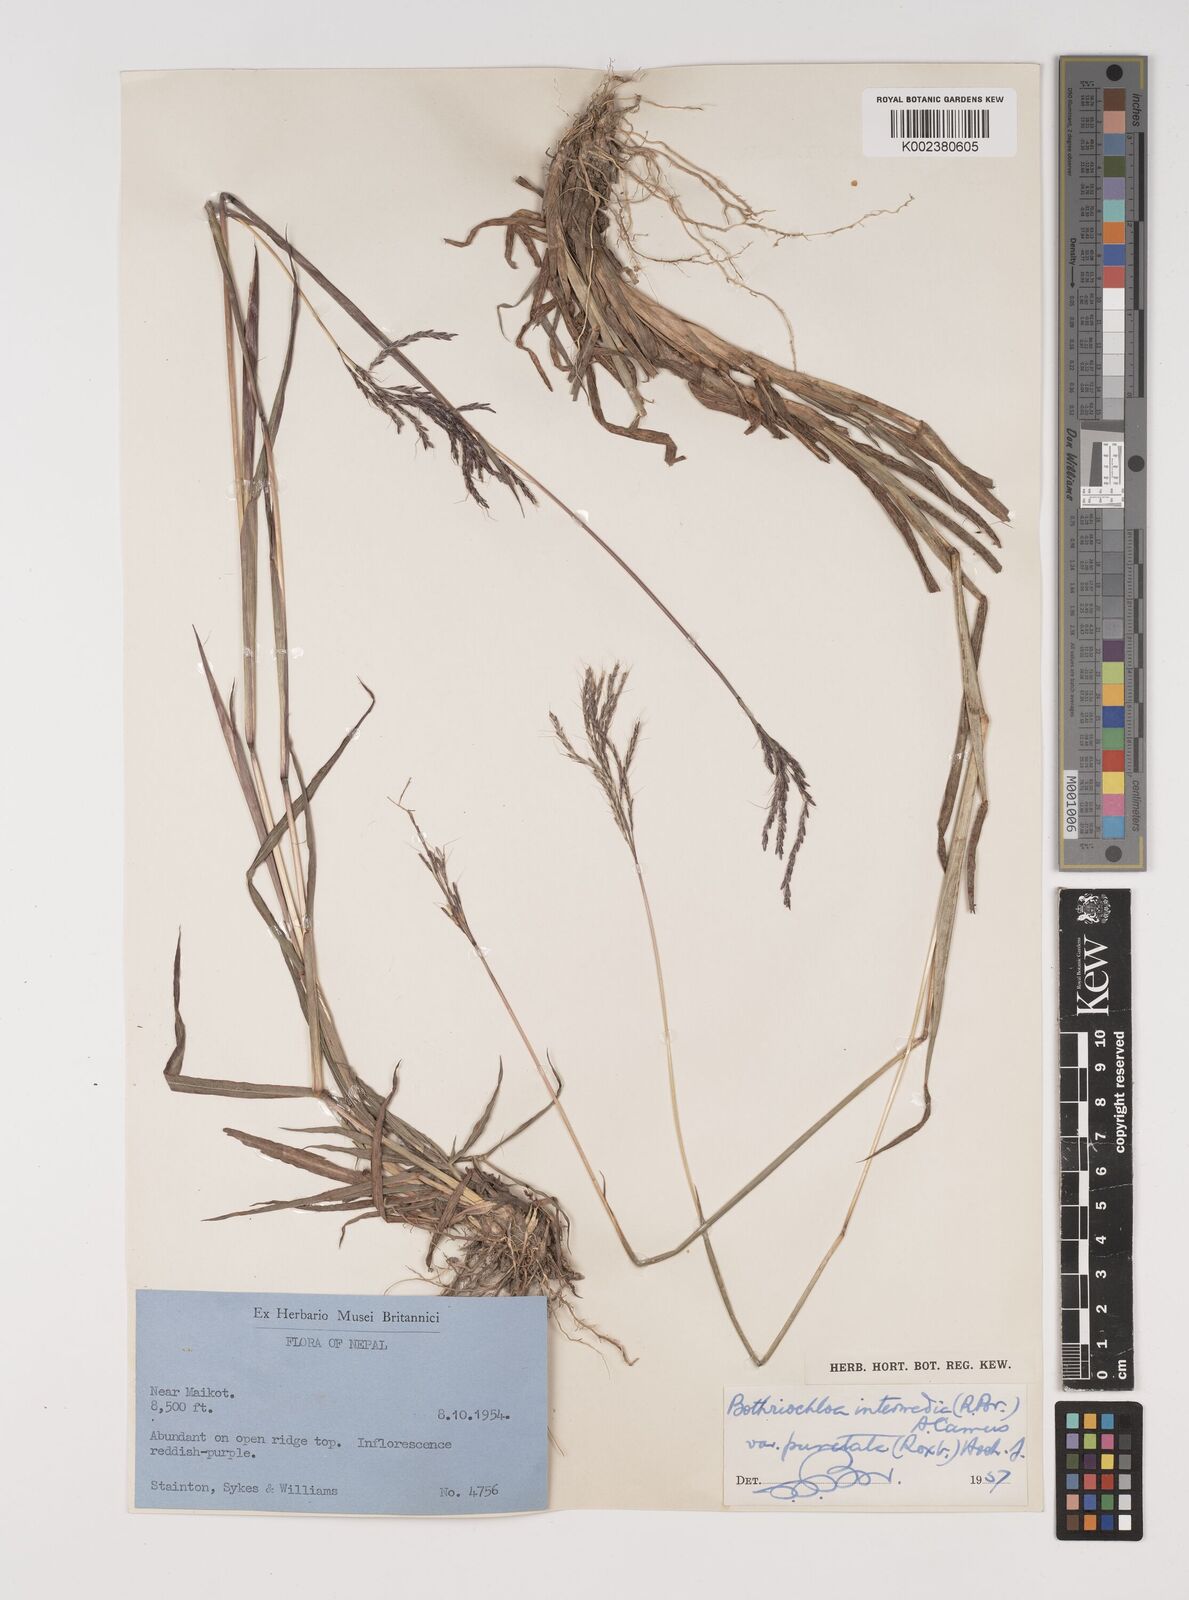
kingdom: Plantae
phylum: Tracheophyta
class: Liliopsida
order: Poales
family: Poaceae
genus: Bothriochloa
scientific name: Bothriochloa bladhii
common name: Caucasian bluestem
